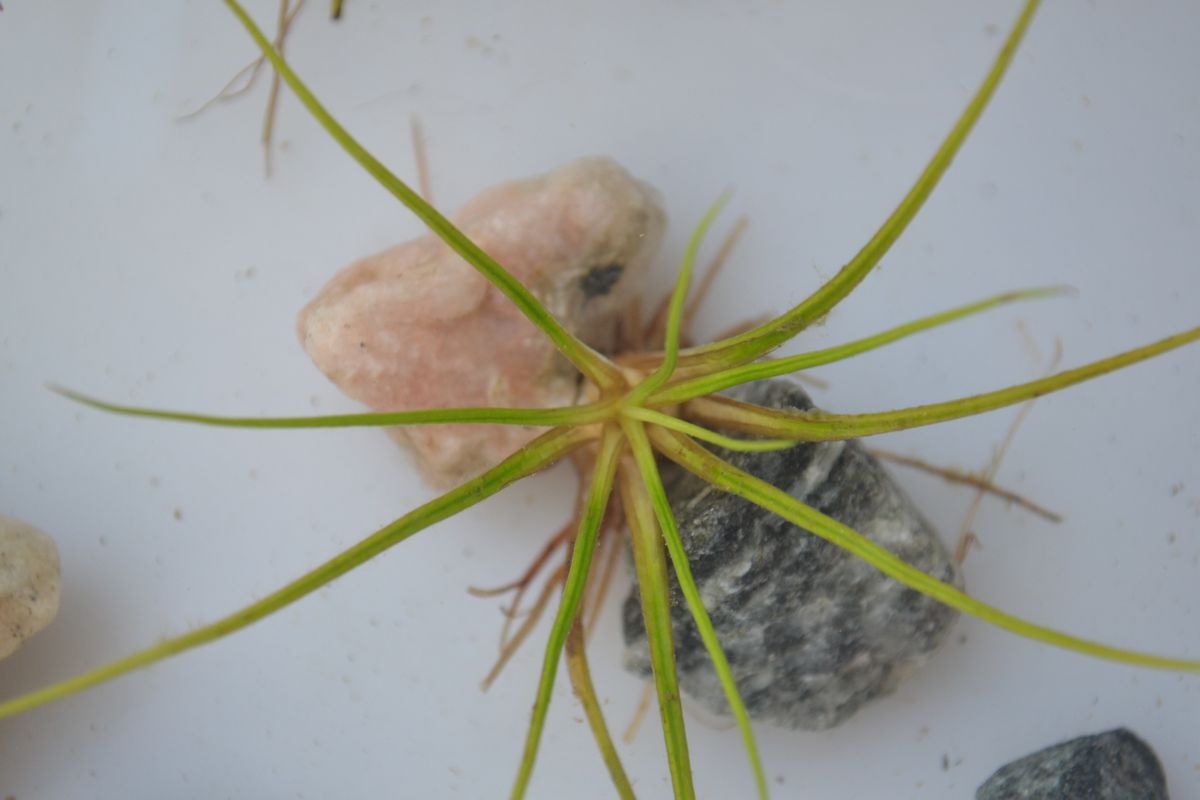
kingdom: Plantae
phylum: Tracheophyta
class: Lycopodiopsida
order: Isoetales
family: Isoetaceae
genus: Isoetes
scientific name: Isoetes lacustris
